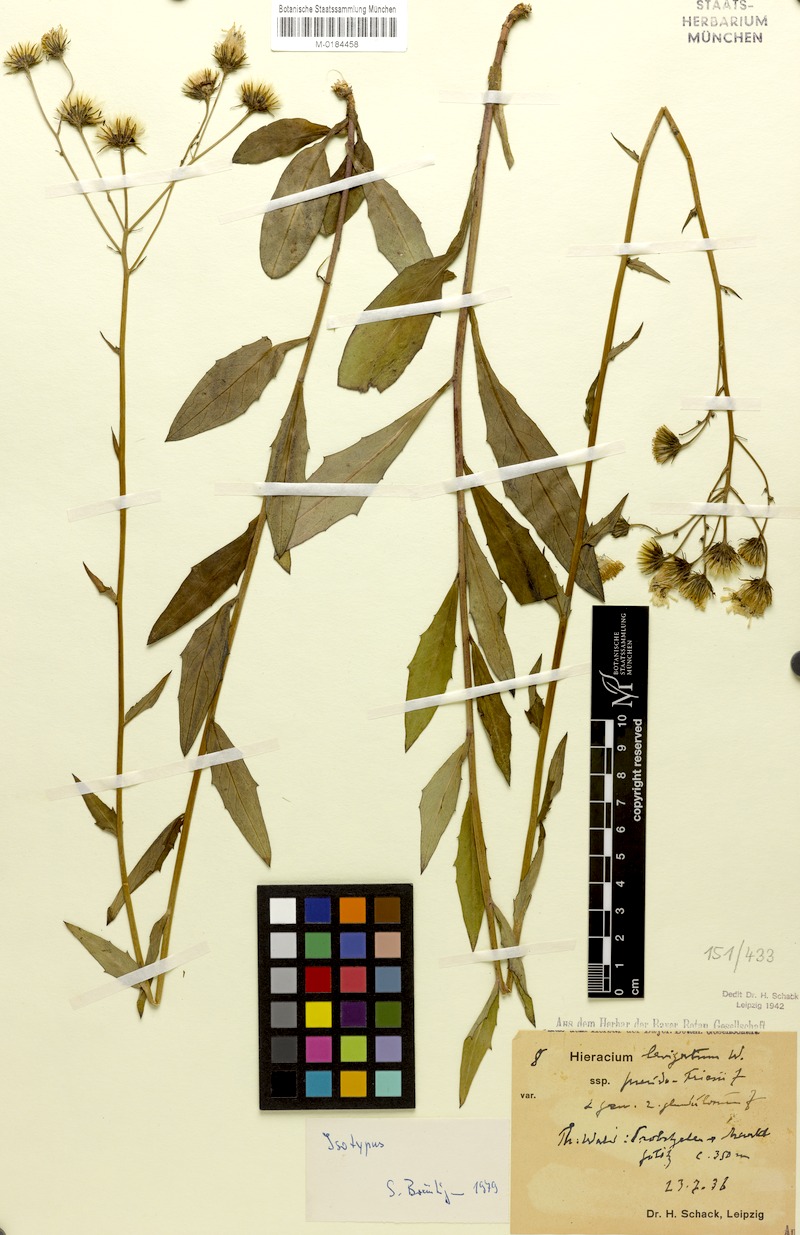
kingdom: Plantae
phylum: Tracheophyta
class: Magnoliopsida
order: Asterales
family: Asteraceae
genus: Hieracium
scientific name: Hieracium laevigatum
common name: Smooth hawkweed
